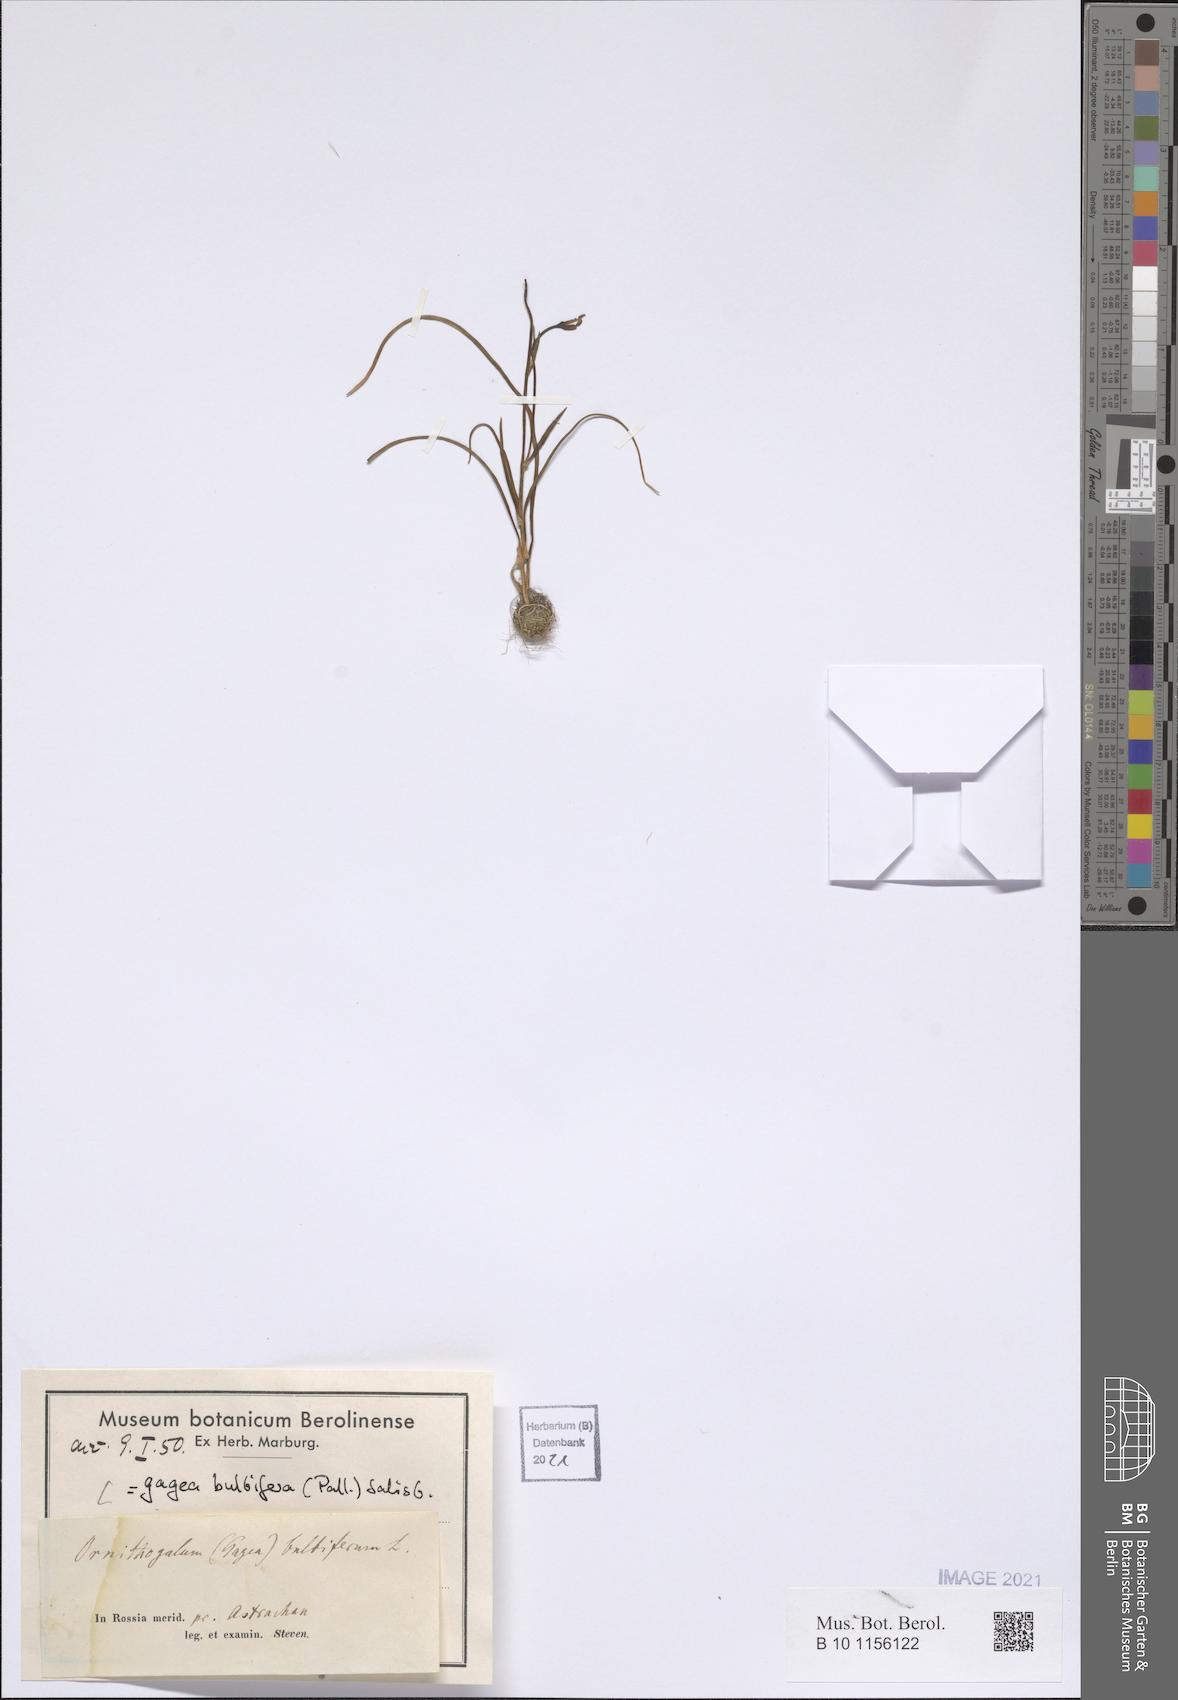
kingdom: Plantae
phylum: Tracheophyta
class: Liliopsida
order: Liliales
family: Liliaceae
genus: Gagea
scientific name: Gagea bulbifera
